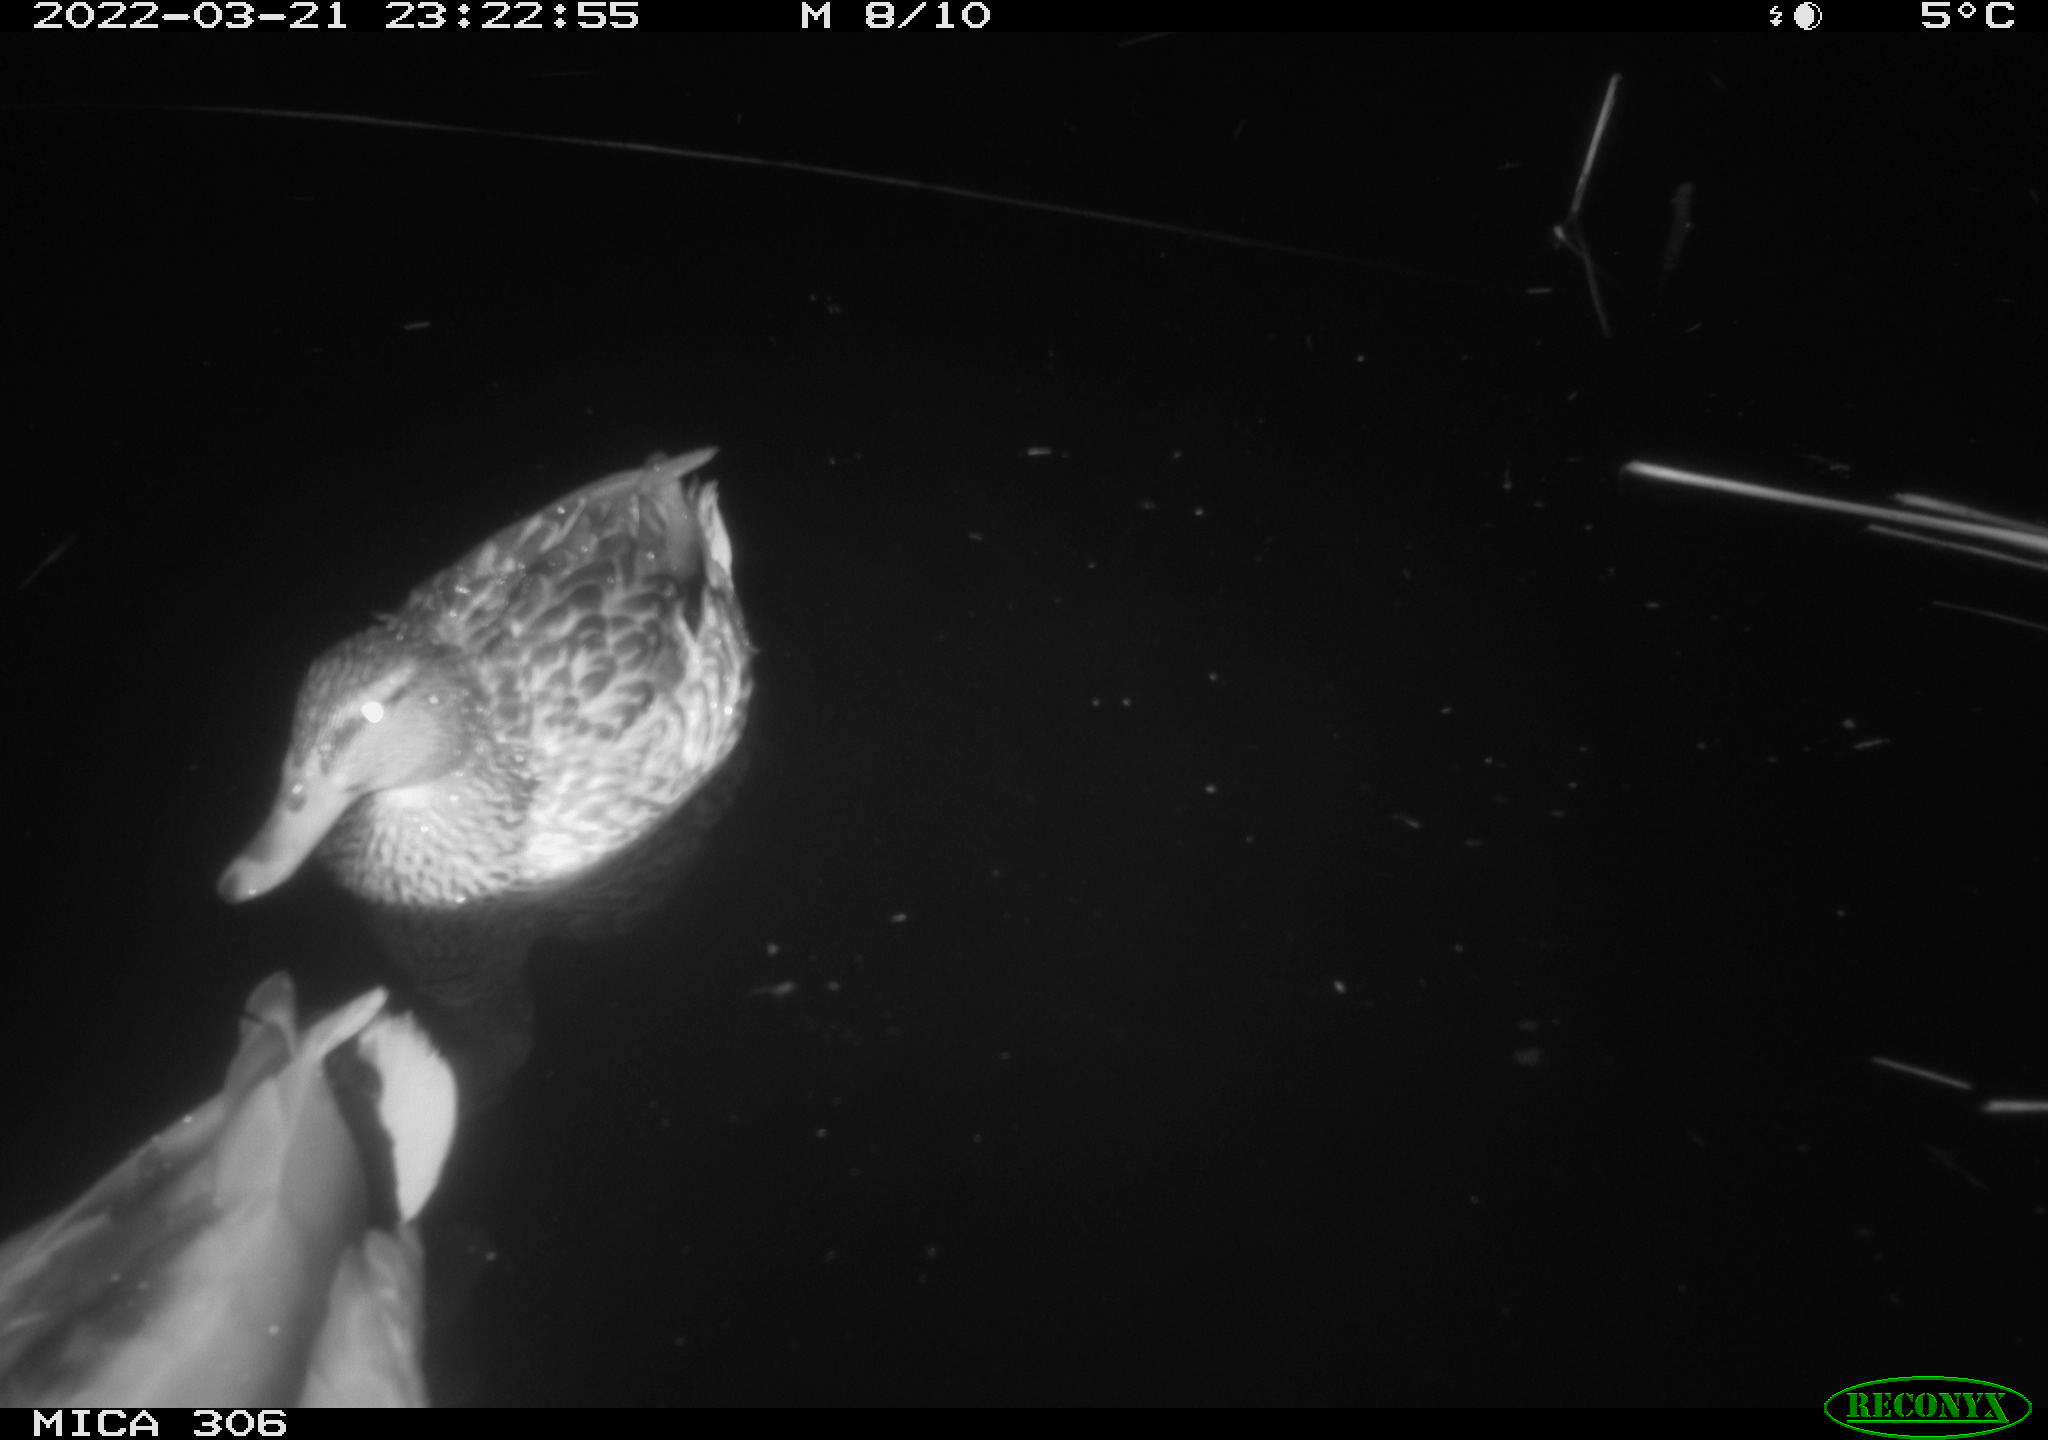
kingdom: Animalia
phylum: Chordata
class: Aves
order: Anseriformes
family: Anatidae
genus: Anas
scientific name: Anas platyrhynchos
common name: Mallard
